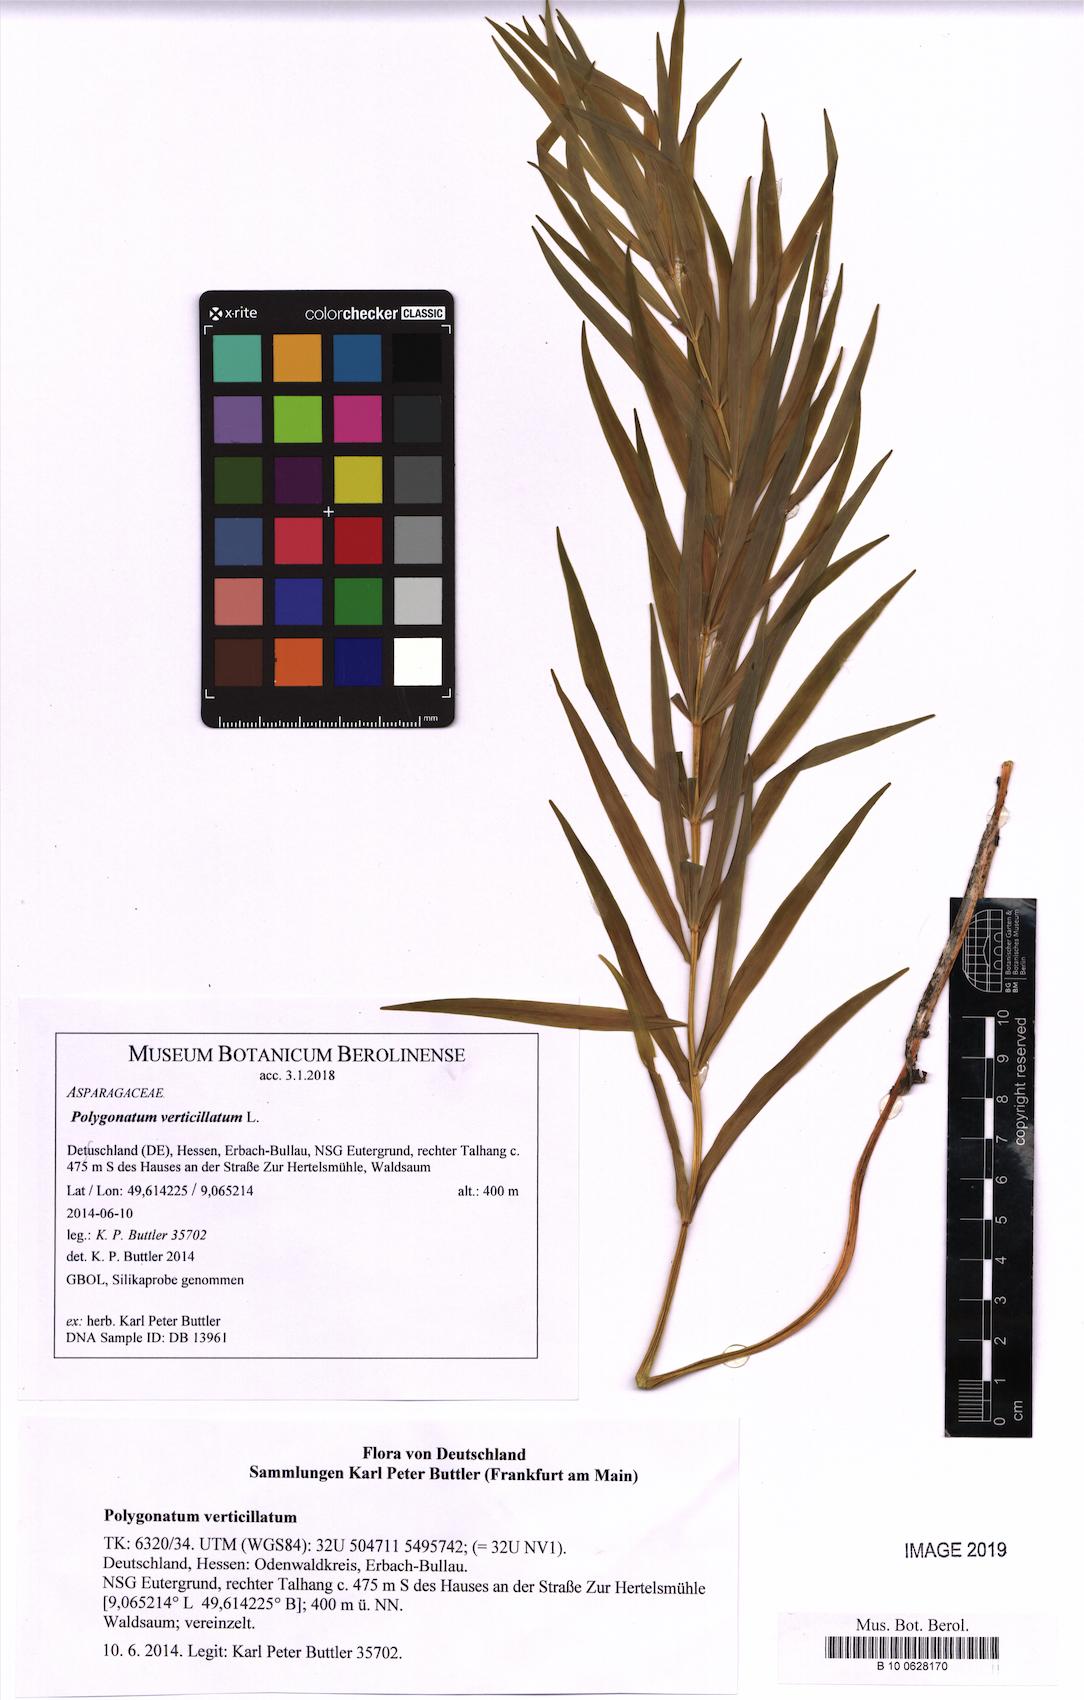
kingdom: Plantae
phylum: Tracheophyta
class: Liliopsida
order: Asparagales
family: Asparagaceae
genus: Polygonatum
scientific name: Polygonatum verticillatum
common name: Whorled solomon's-seal
